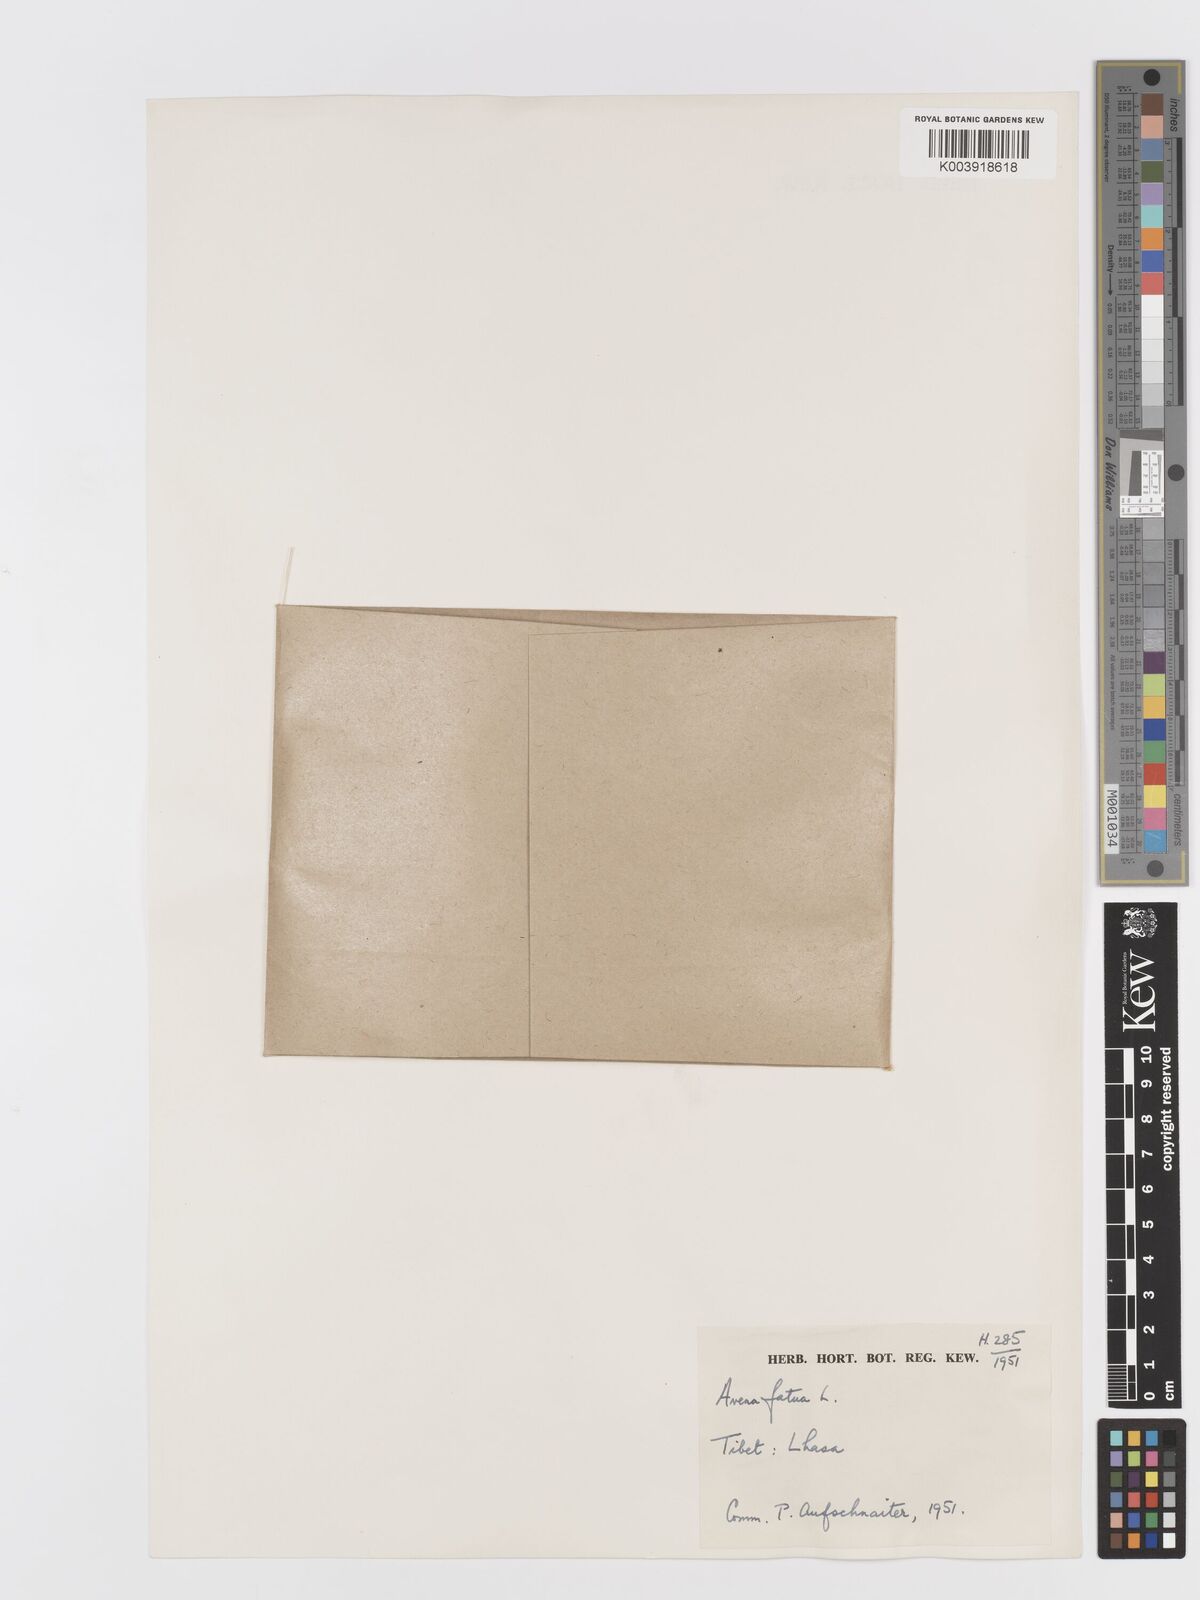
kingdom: Plantae
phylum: Tracheophyta
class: Liliopsida
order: Poales
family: Poaceae
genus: Avena
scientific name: Avena fatua
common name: Wild oat
